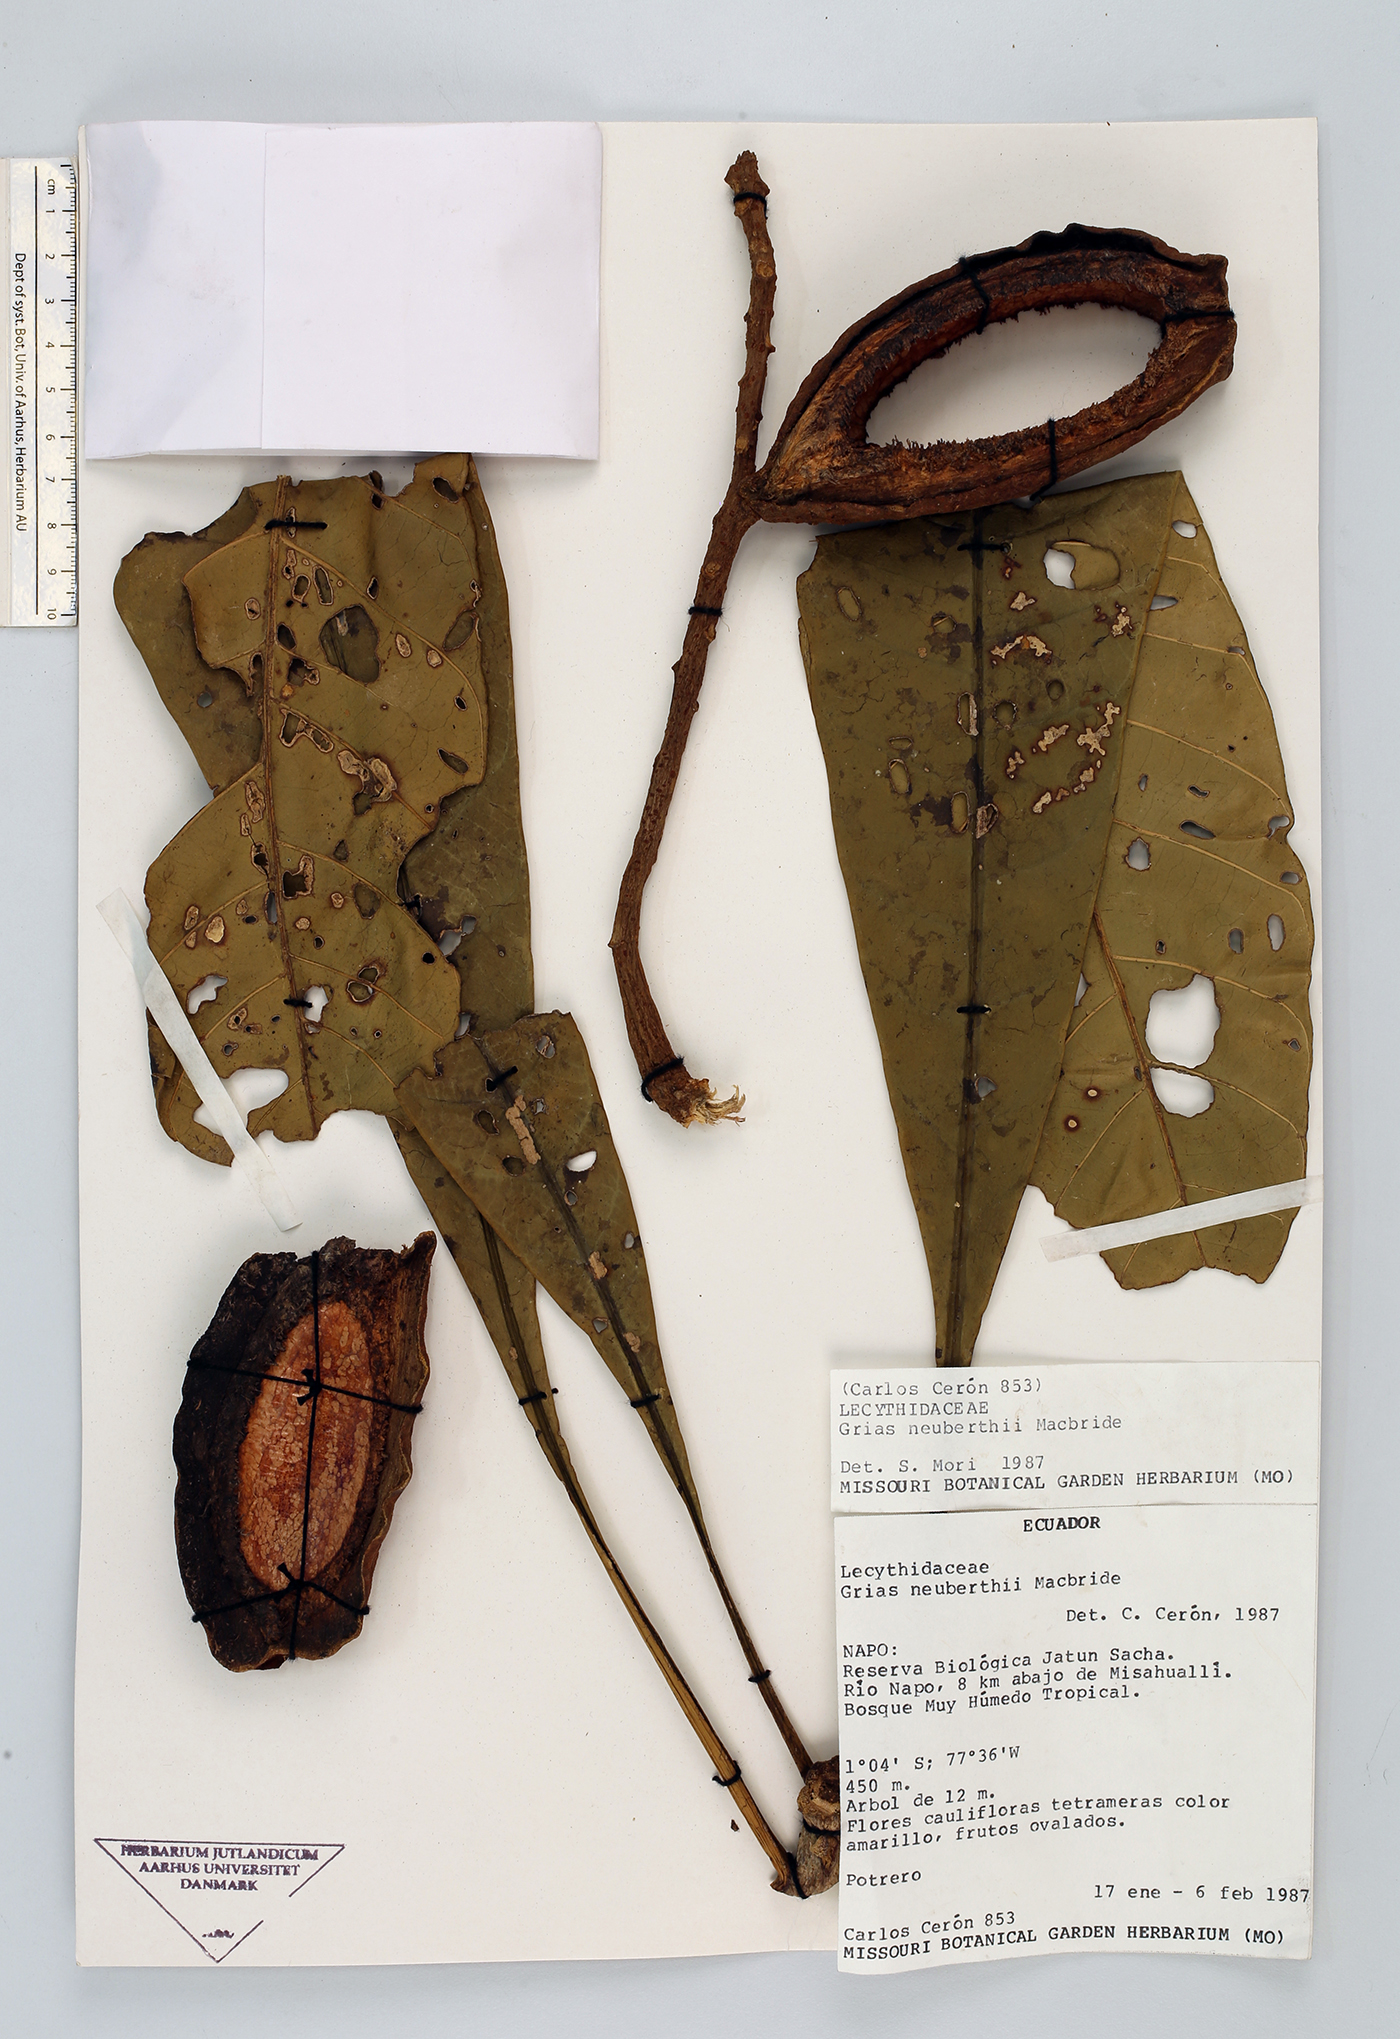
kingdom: Plantae
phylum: Tracheophyta
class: Magnoliopsida
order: Ericales
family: Lecythidaceae
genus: Grias
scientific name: Grias neuberthii
